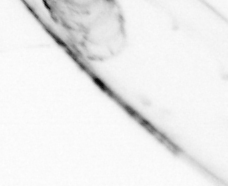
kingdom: Animalia
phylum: Chaetognatha
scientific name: Chaetognatha
